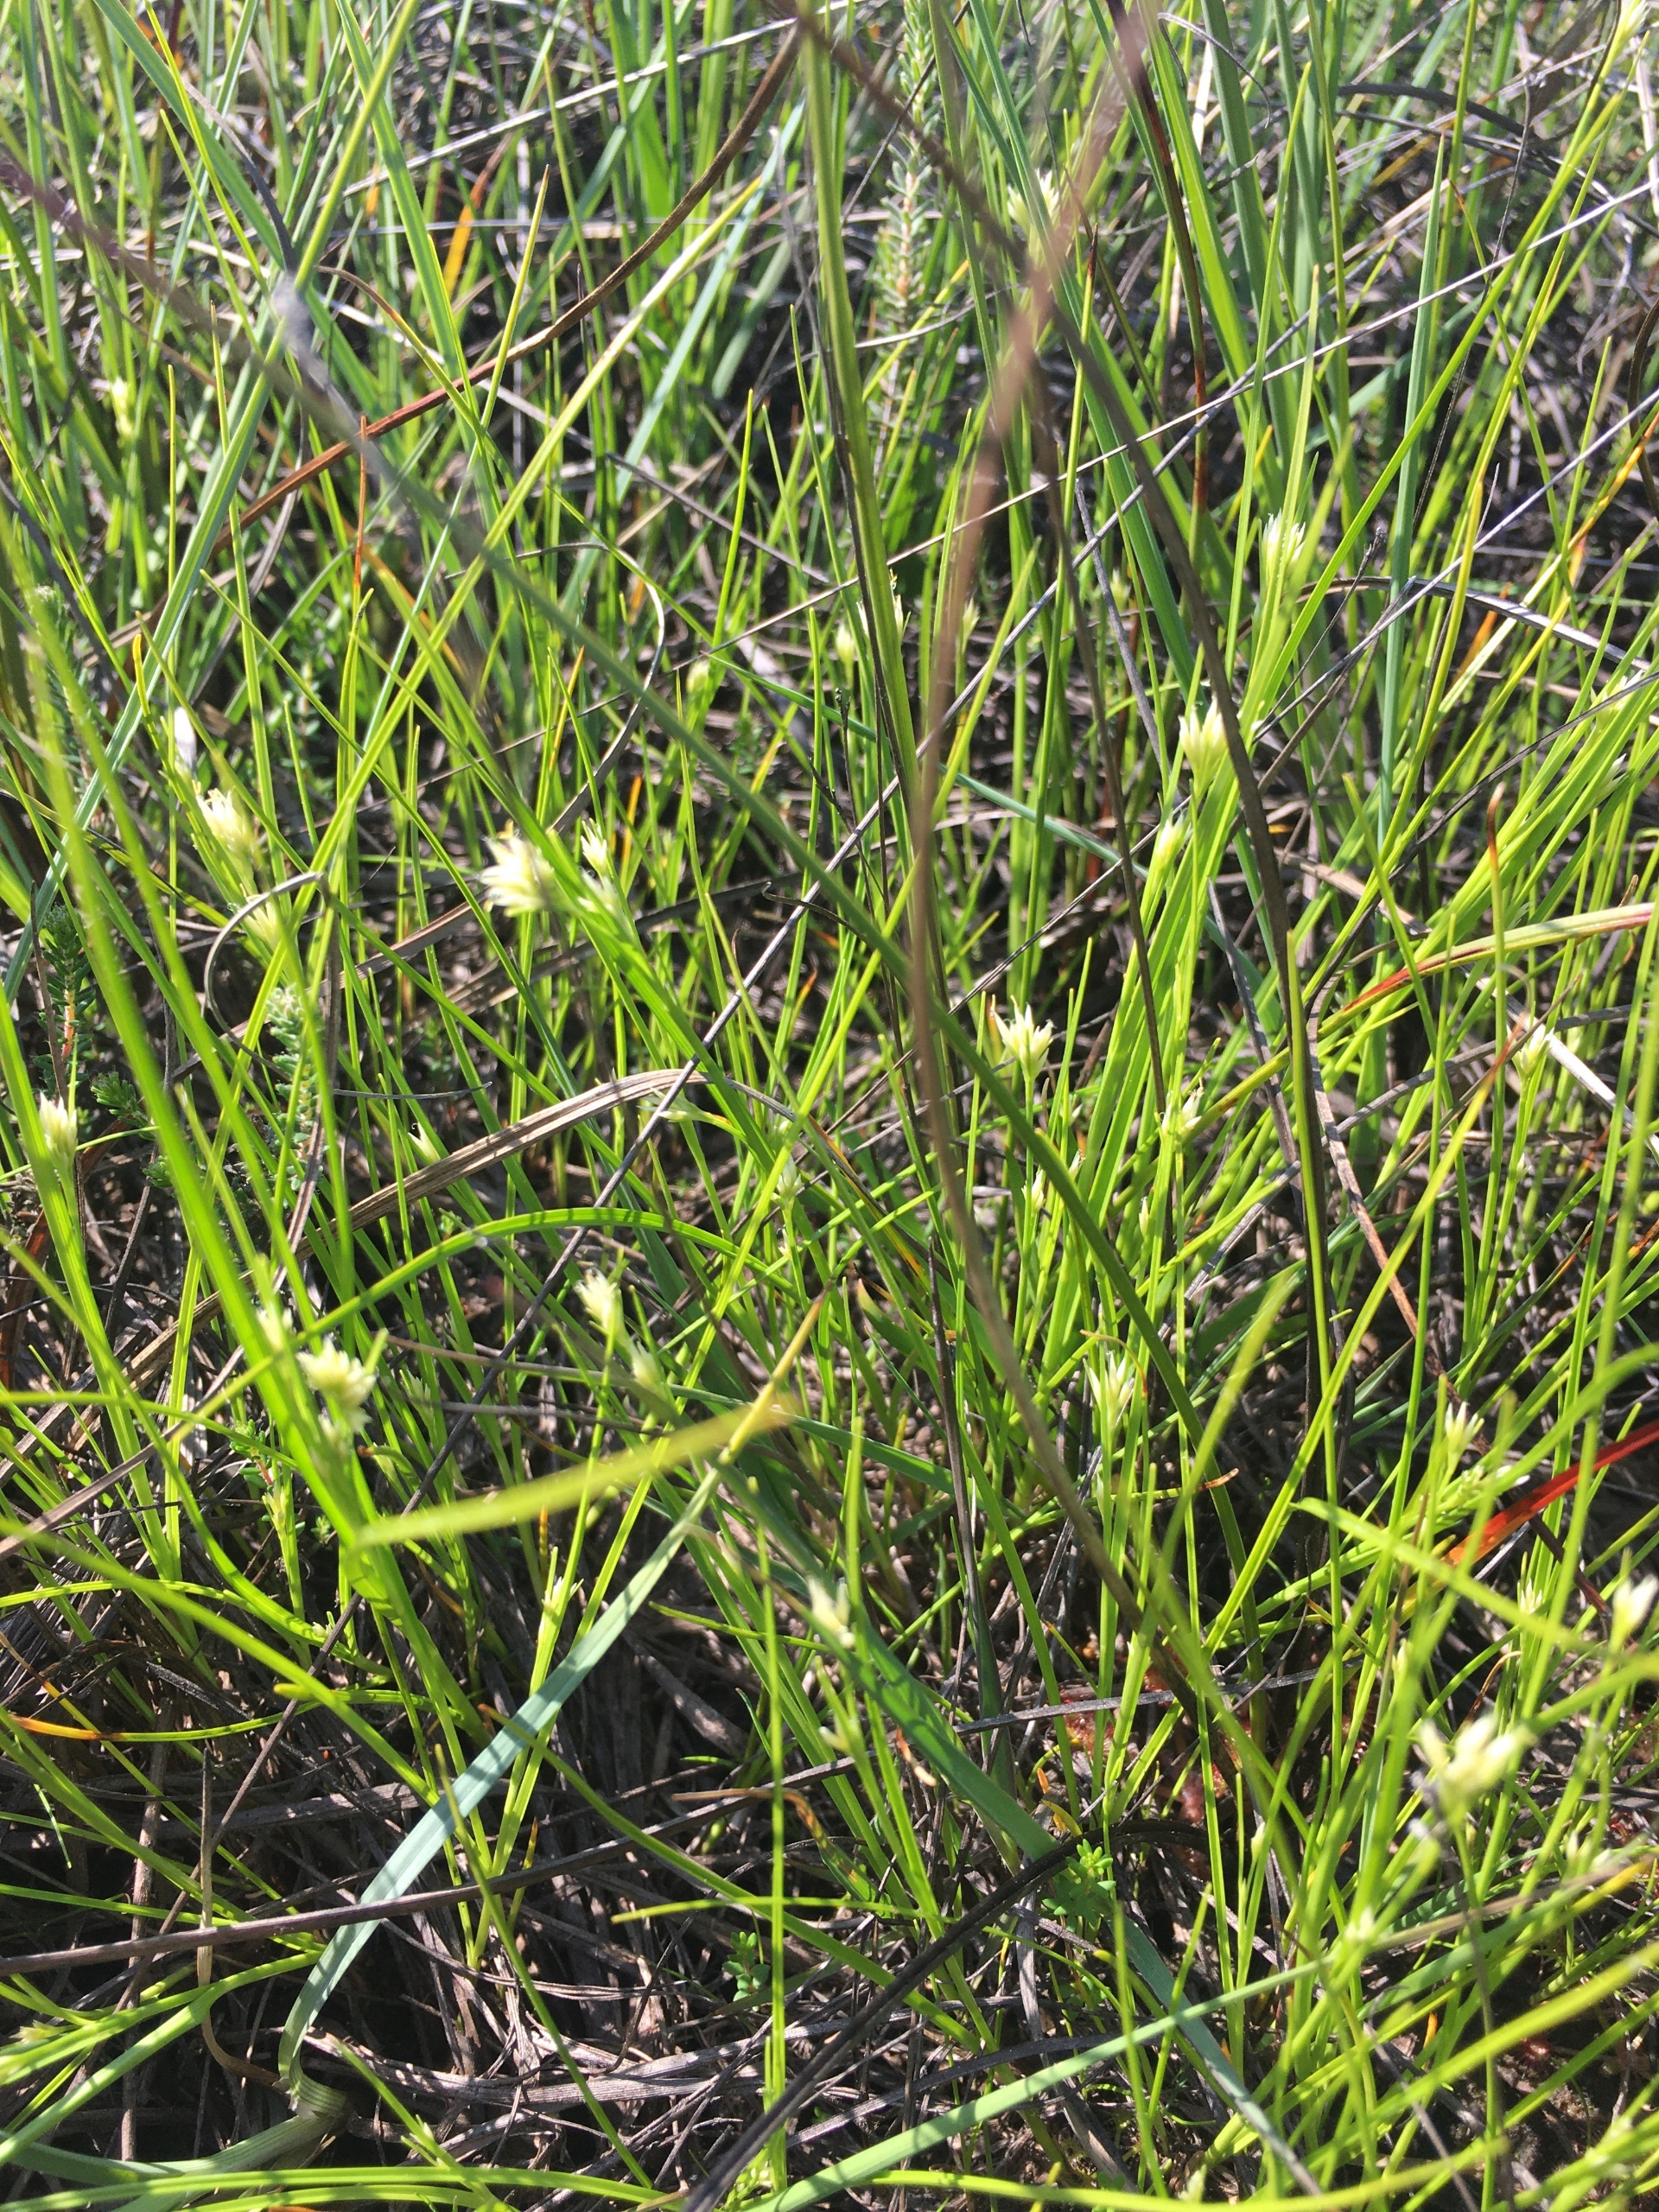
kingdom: Plantae
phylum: Tracheophyta
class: Liliopsida
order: Poales
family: Cyperaceae
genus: Rhynchospora
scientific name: Rhynchospora alba
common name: Hvid næbfrø
